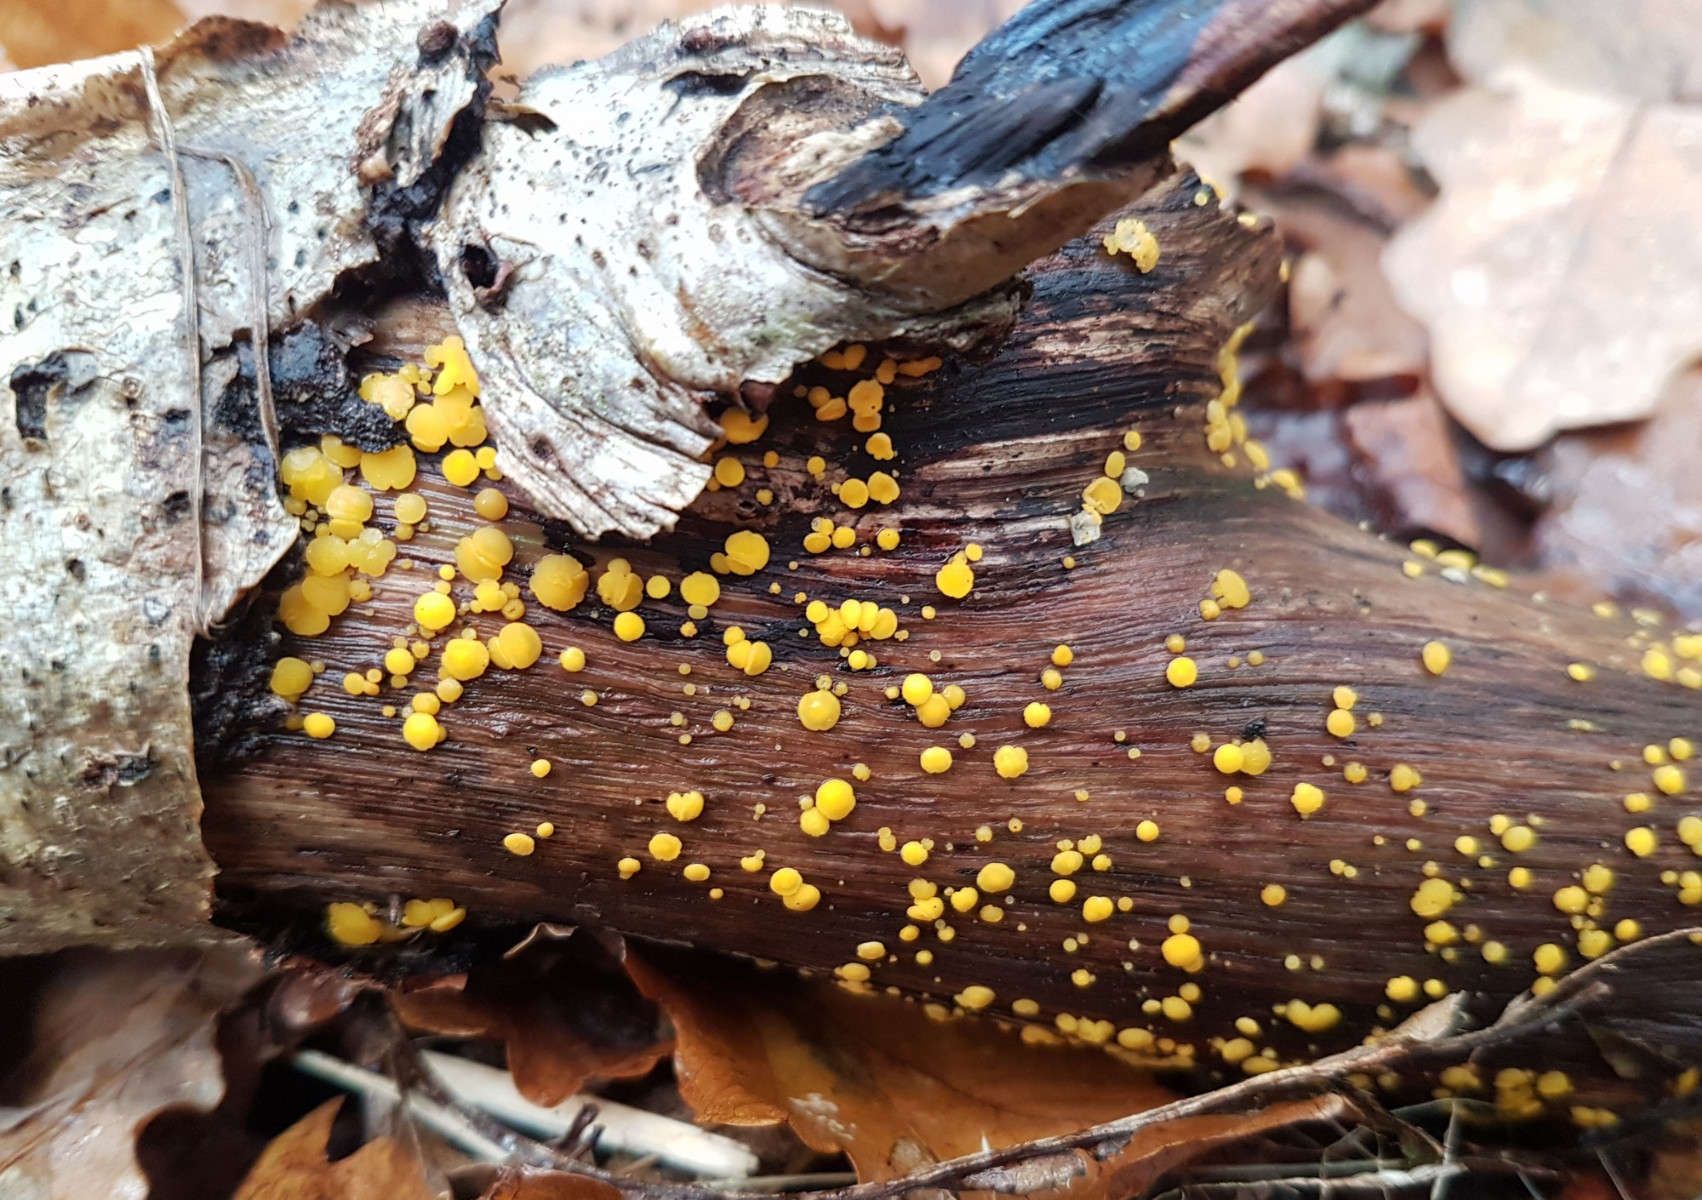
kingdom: Fungi
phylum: Ascomycota
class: Leotiomycetes
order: Helotiales
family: Pezizellaceae
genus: Calycina
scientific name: Calycina citrina
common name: almindelig gulskive
